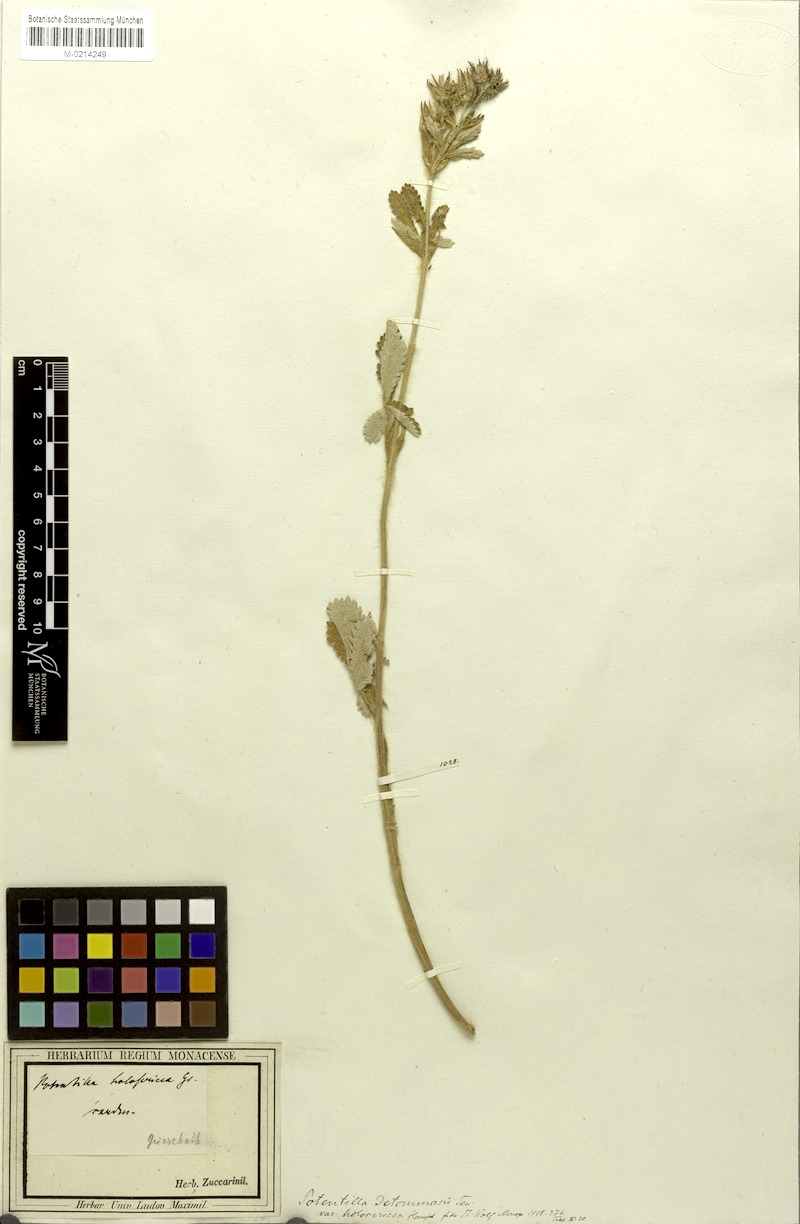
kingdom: Plantae
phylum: Tracheophyta
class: Magnoliopsida
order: Rosales
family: Rosaceae
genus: Potentilla
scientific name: Potentilla detommasii
